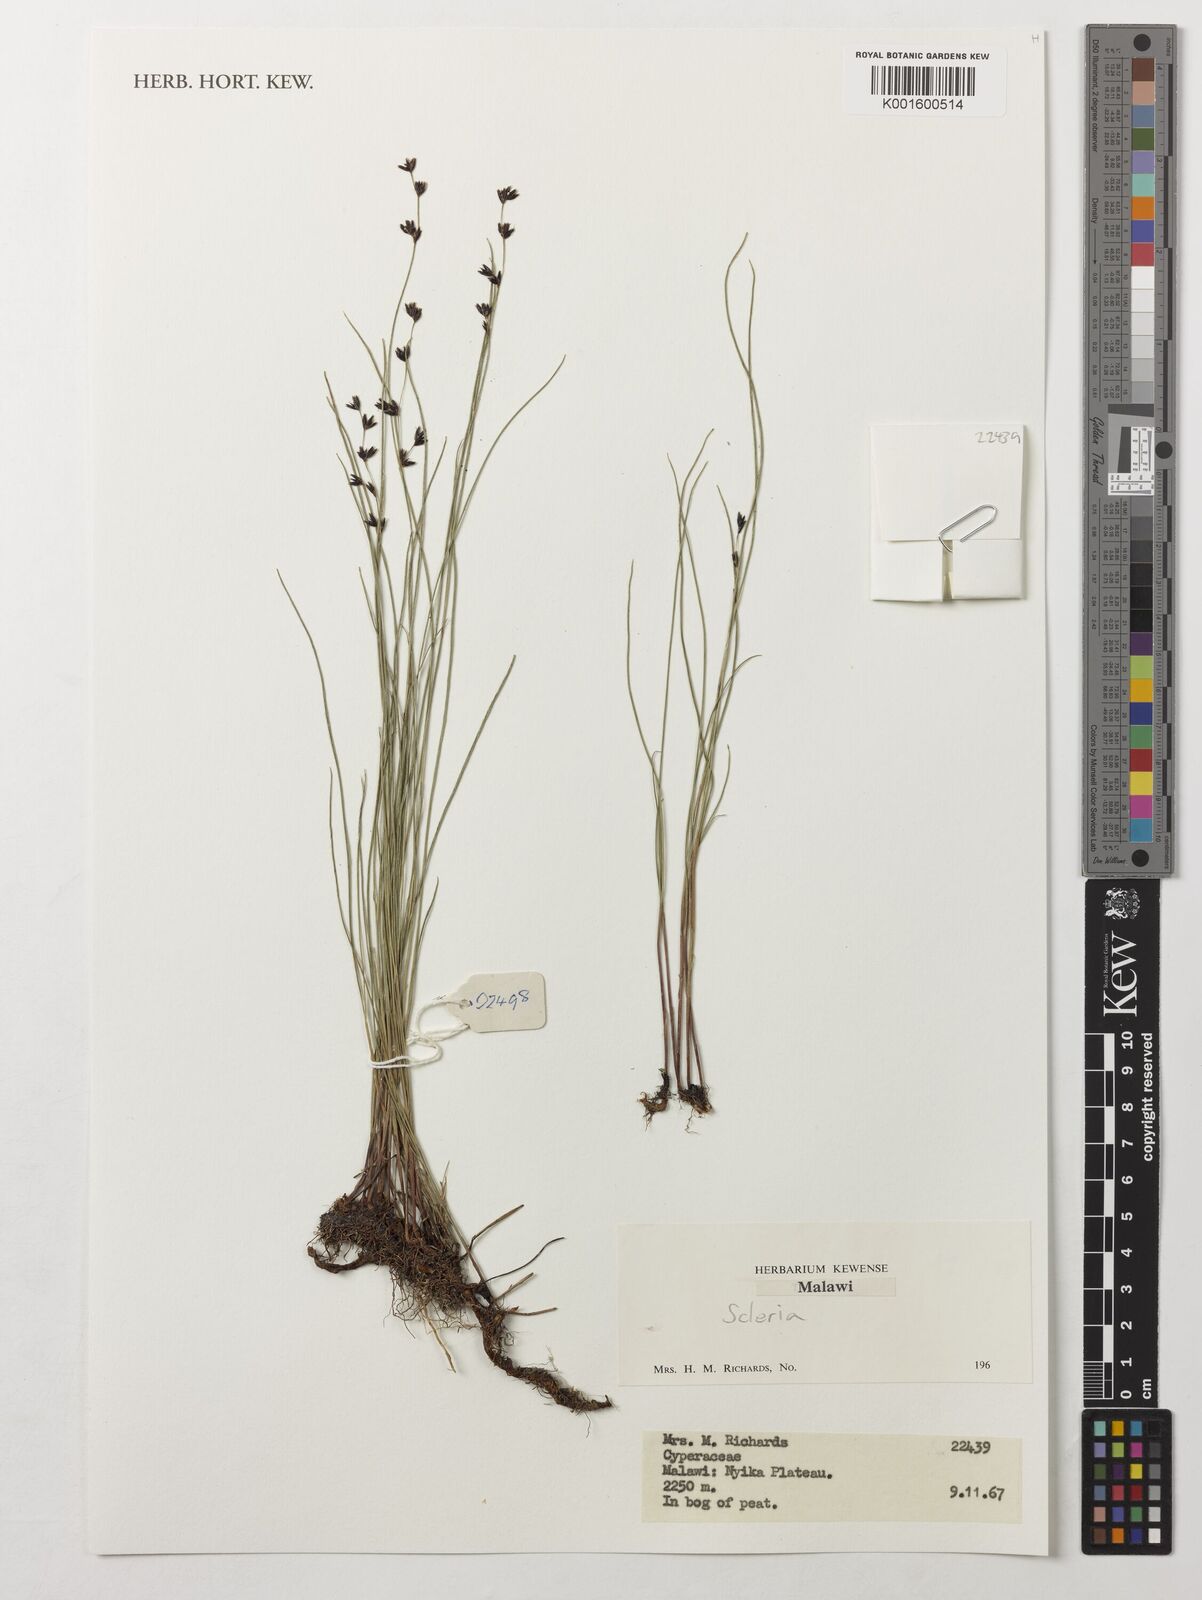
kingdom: Plantae
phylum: Tracheophyta
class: Liliopsida
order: Poales
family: Cyperaceae
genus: Scleria
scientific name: Scleria
